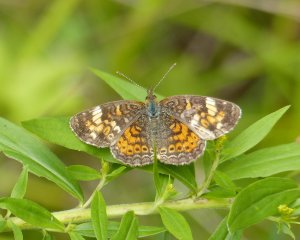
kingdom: Animalia
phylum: Arthropoda
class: Insecta
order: Lepidoptera
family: Nymphalidae
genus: Phyciodes
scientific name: Phyciodes tharos
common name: Northern Crescent
